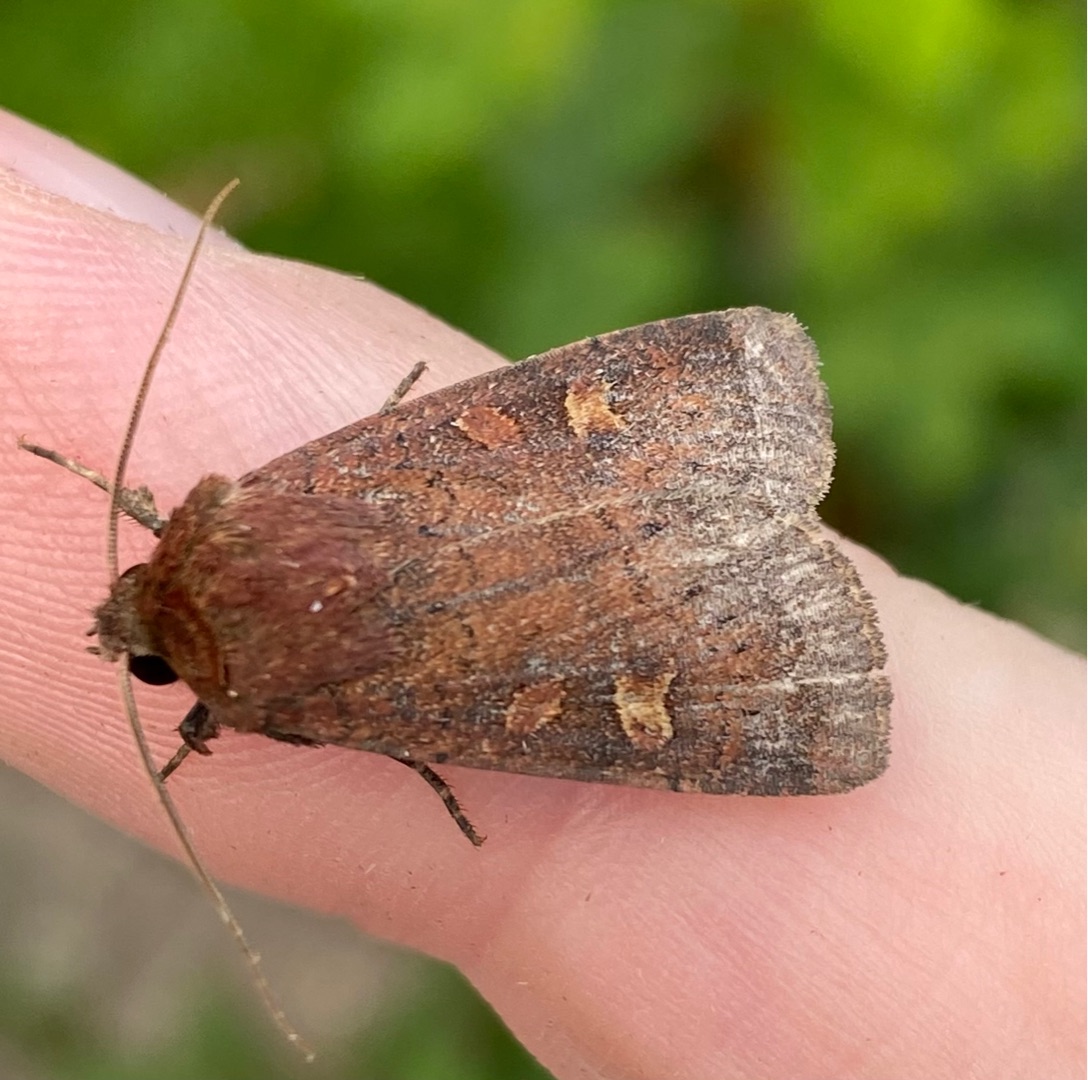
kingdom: Animalia
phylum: Arthropoda
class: Insecta
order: Lepidoptera
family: Noctuidae
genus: Xestia
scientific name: Xestia xanthographa
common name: Gulmærket glansugle
